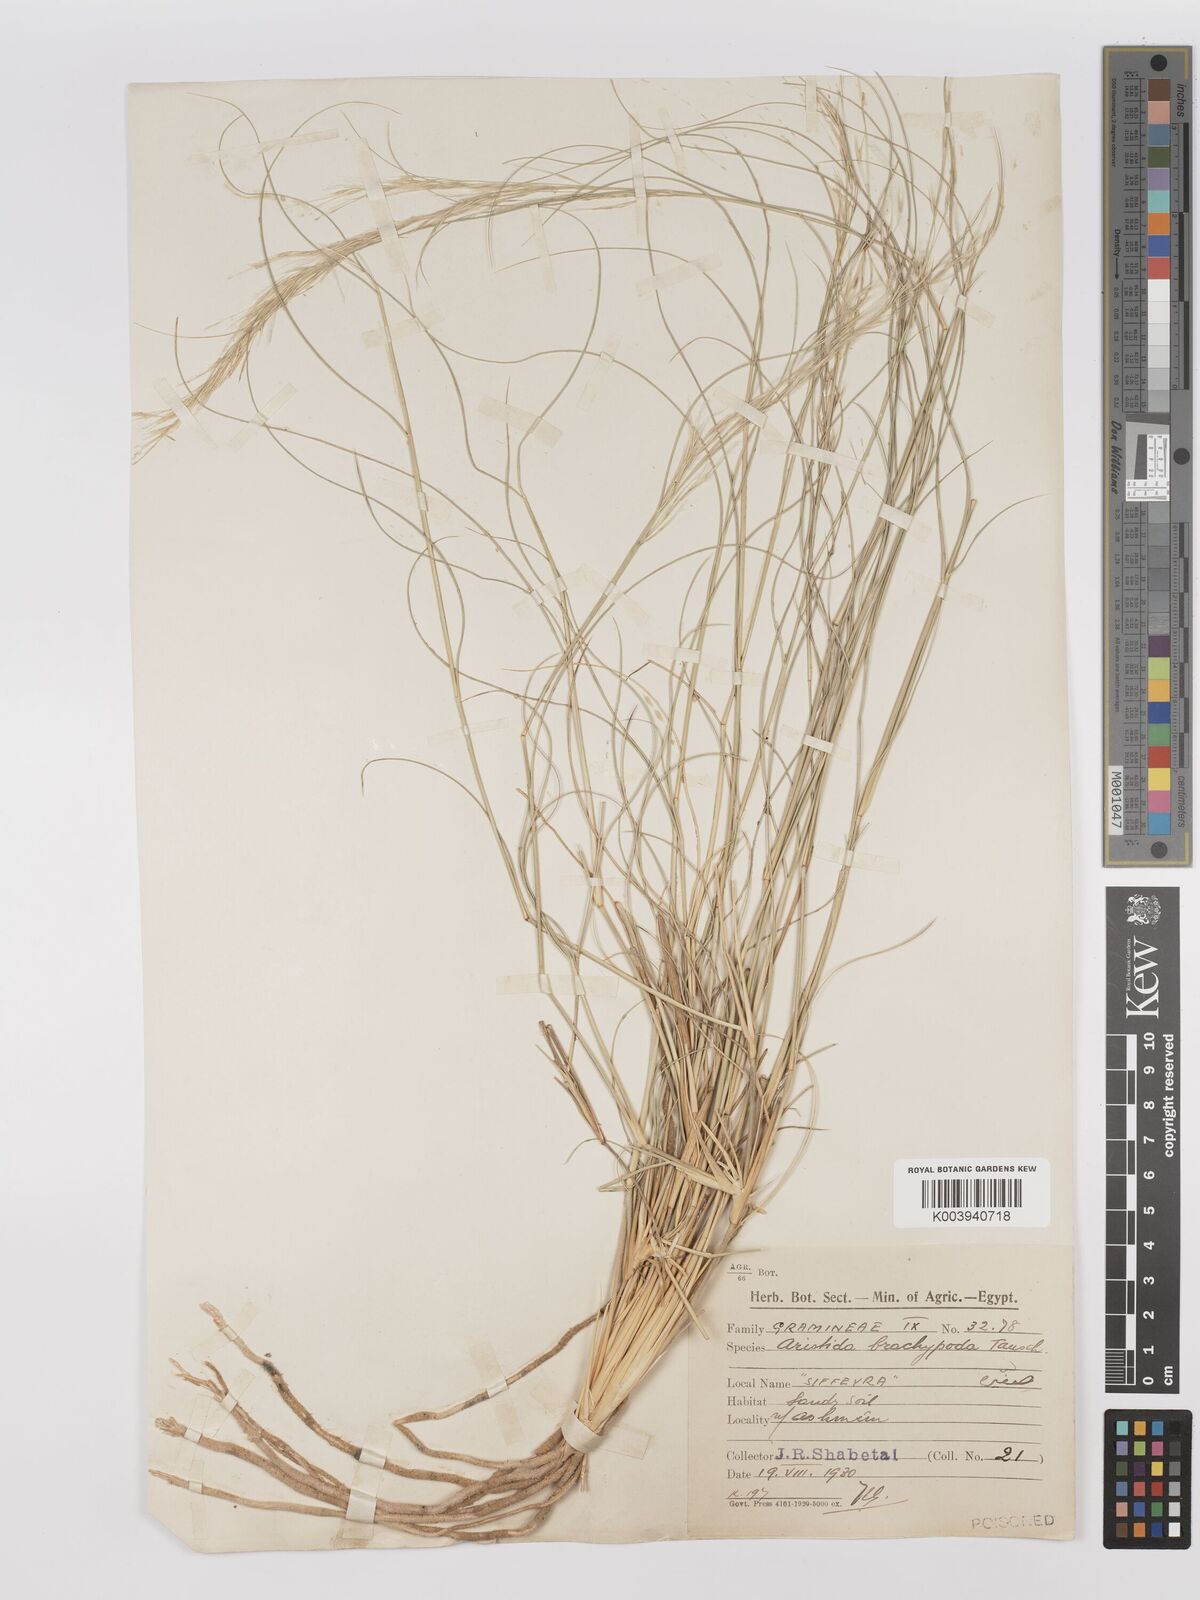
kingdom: Plantae
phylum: Tracheophyta
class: Liliopsida
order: Poales
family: Poaceae
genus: Stipagrostis
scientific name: Stipagrostis plumosa
